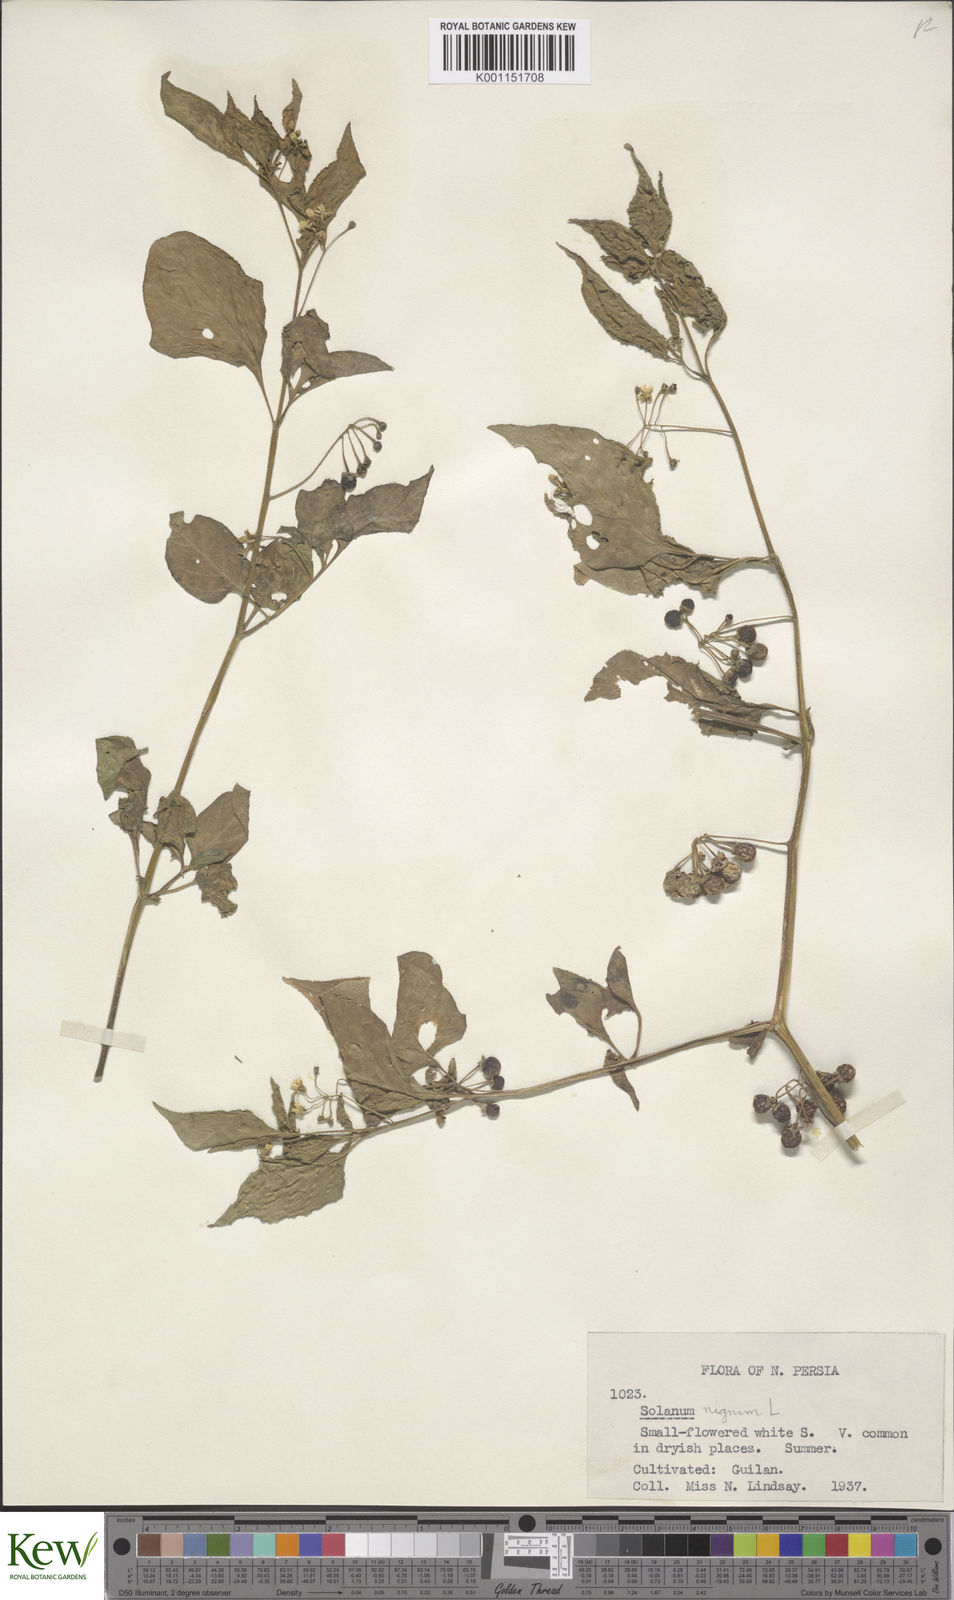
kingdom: Plantae
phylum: Tracheophyta
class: Magnoliopsida
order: Solanales
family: Solanaceae
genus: Solanum
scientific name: Solanum nigrum
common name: Black nightshade
